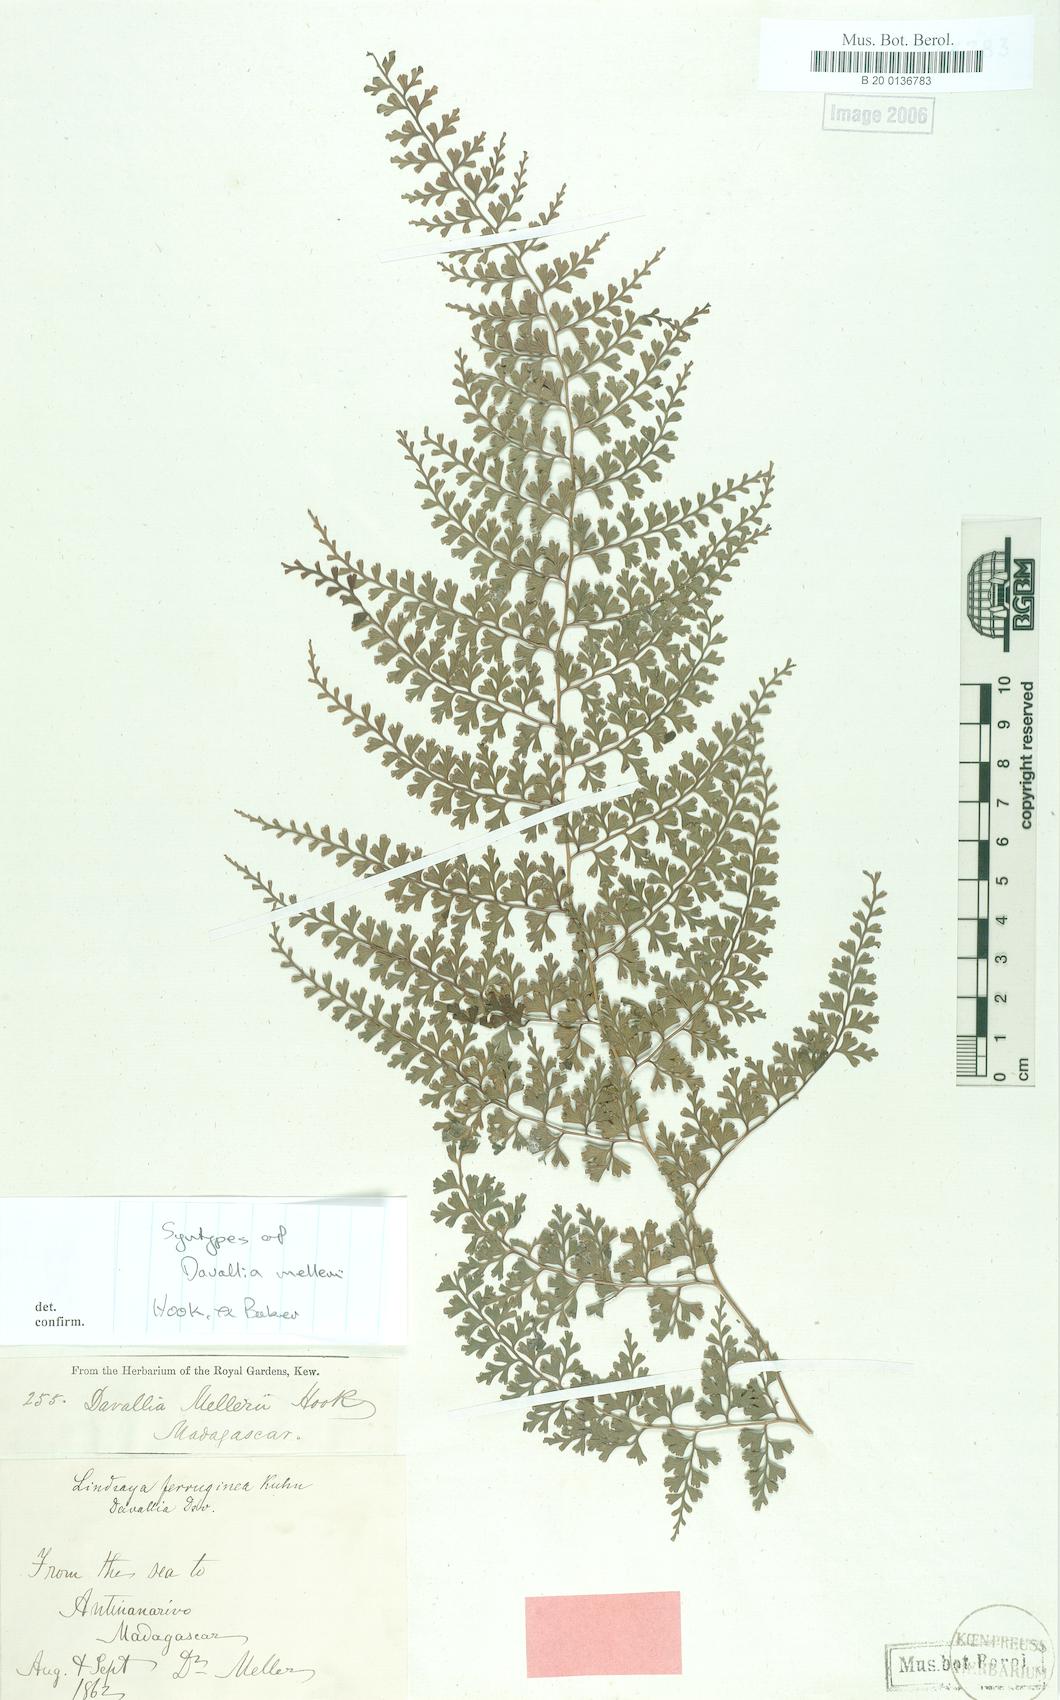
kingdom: Plantae
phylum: Tracheophyta
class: Polypodiopsida
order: Polypodiales
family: Lindsaeaceae
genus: Odontosoria
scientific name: Odontosoria melleri
